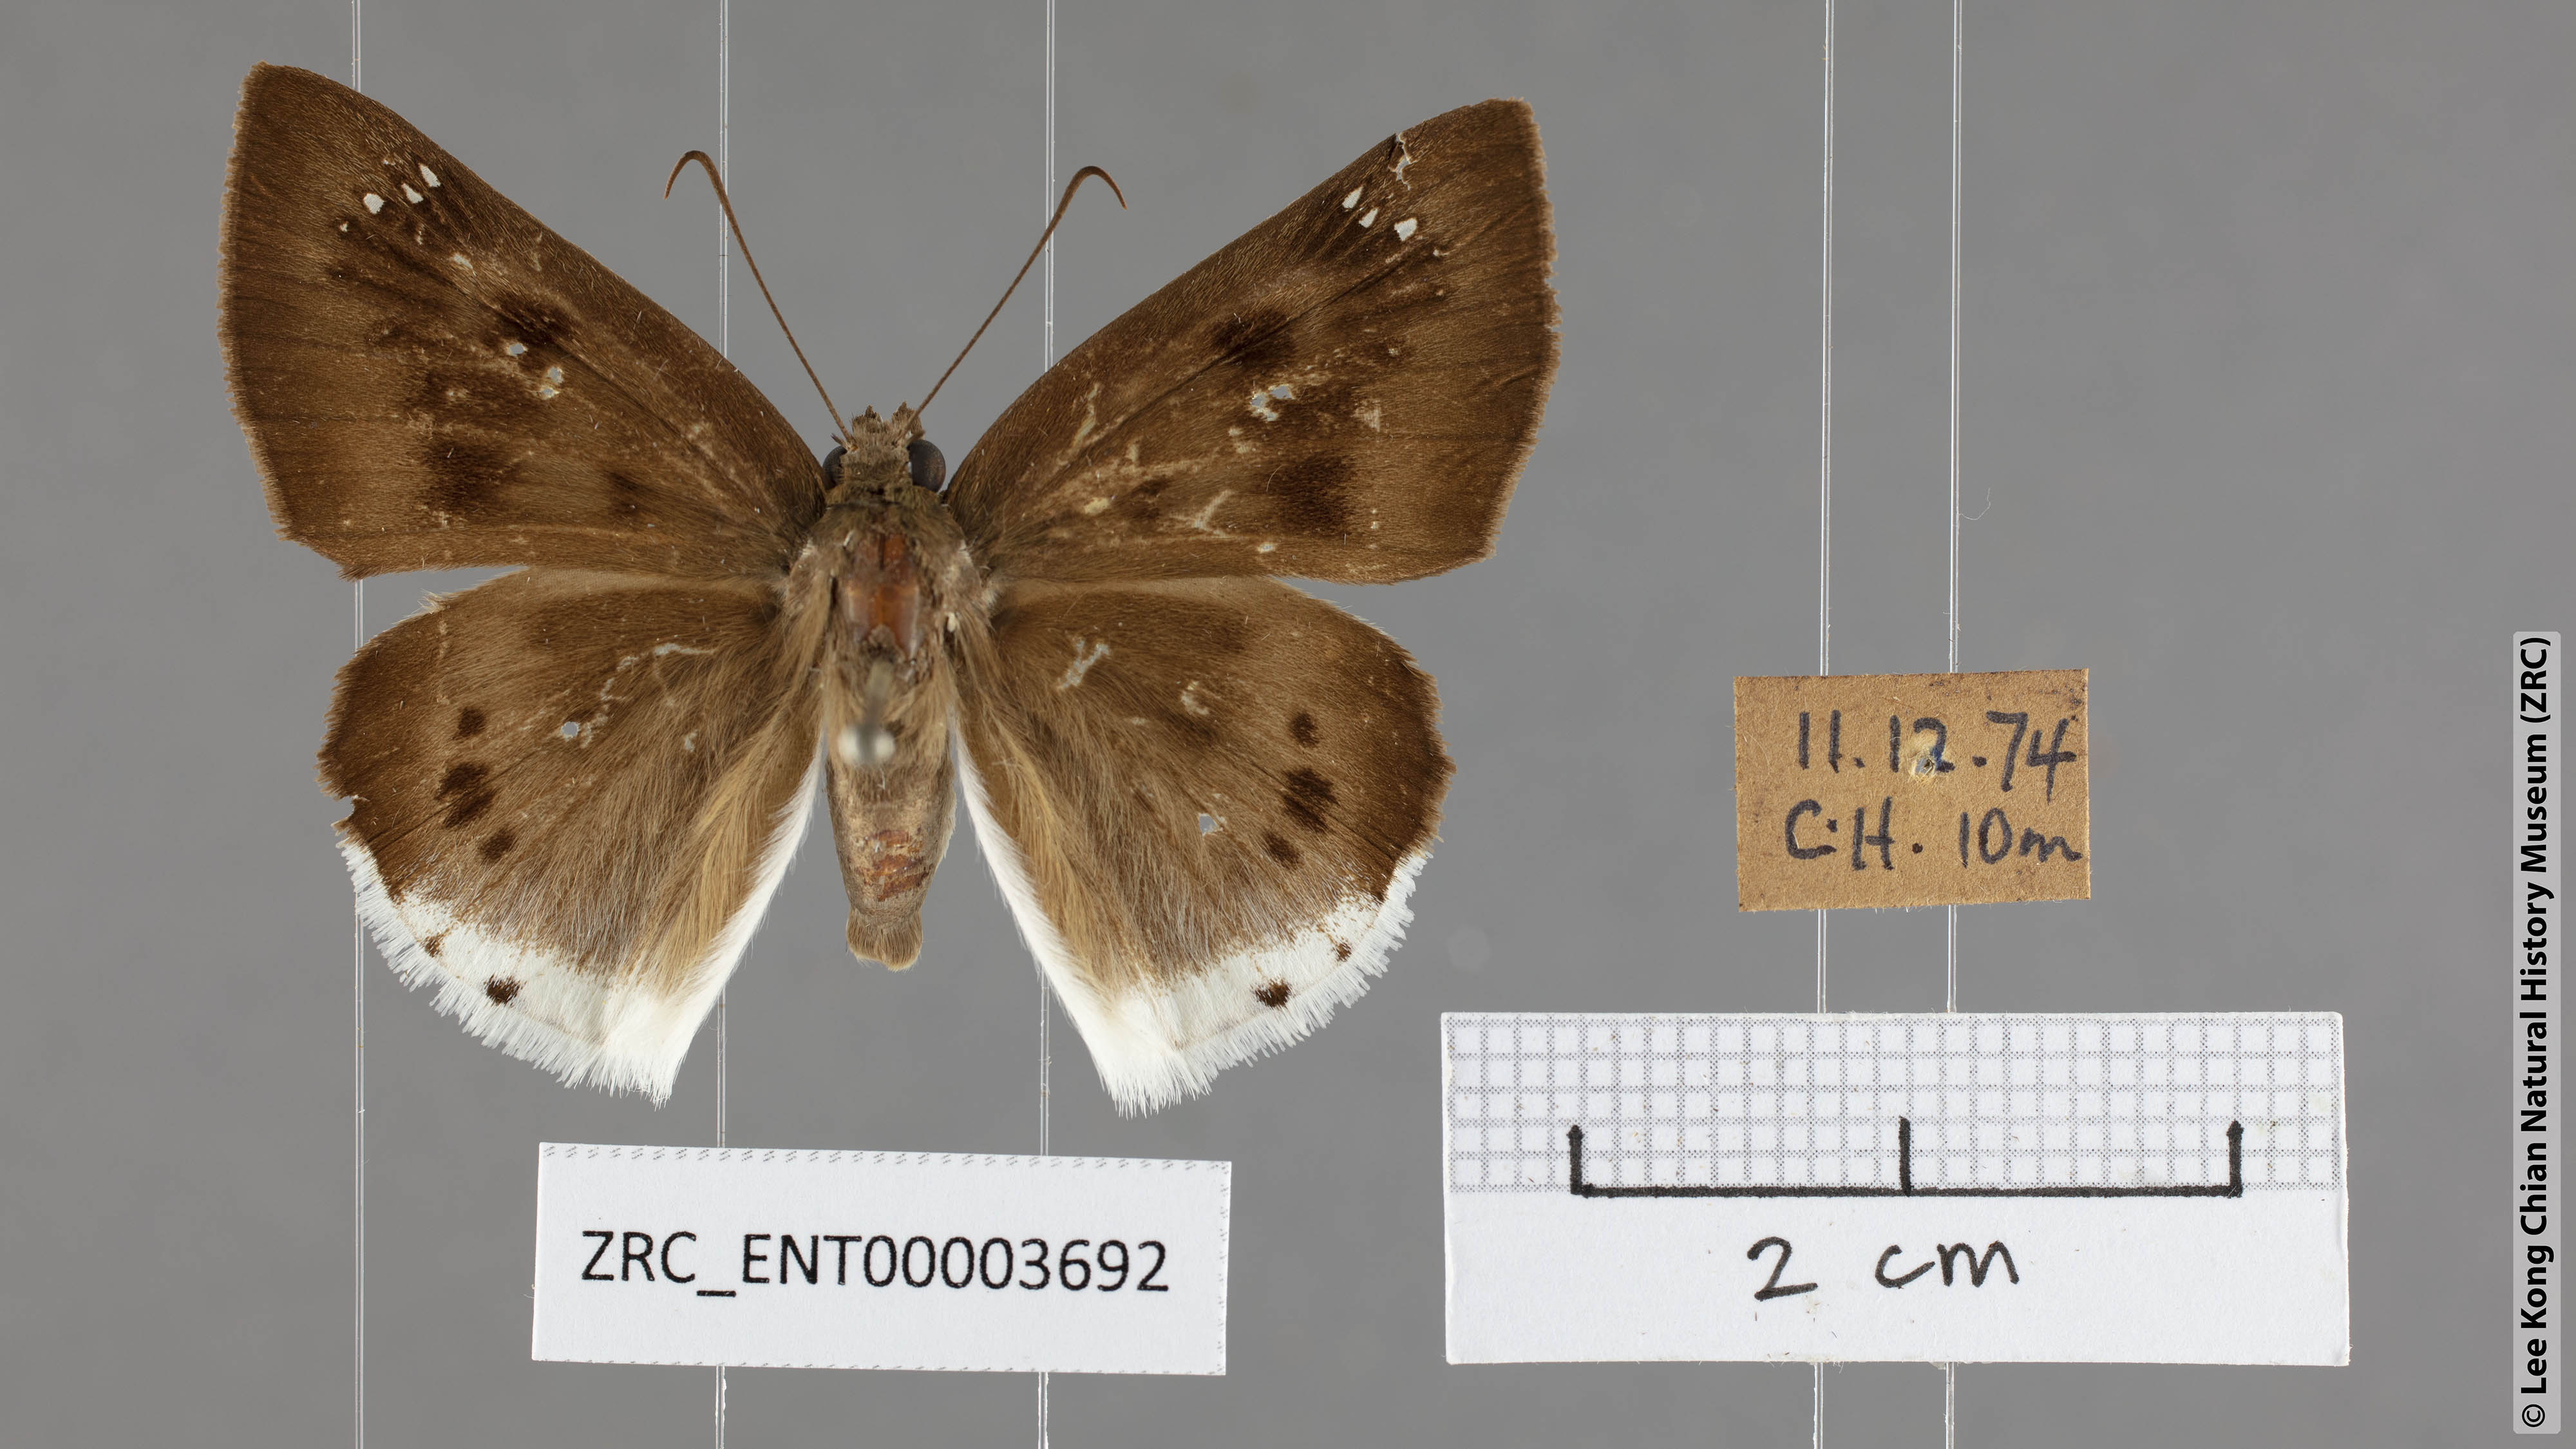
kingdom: Animalia
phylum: Arthropoda
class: Insecta
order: Lepidoptera
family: Hesperiidae
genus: Tagiades
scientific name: Tagiades gana
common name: Suffused snow flat
